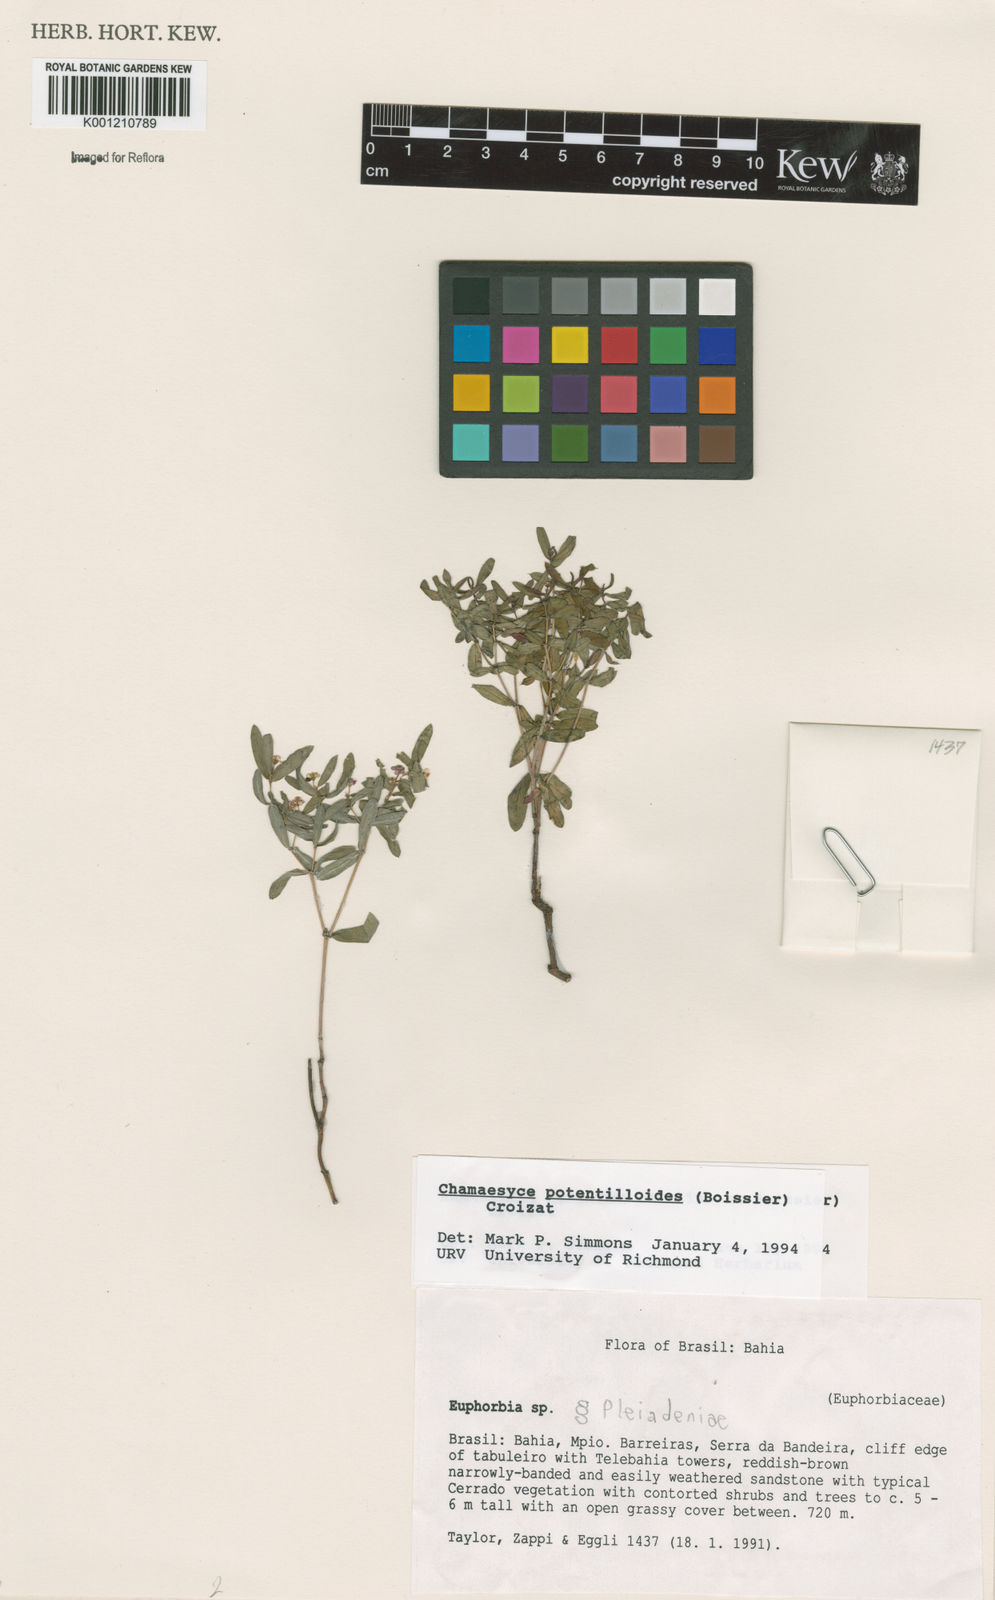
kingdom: Plantae
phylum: Tracheophyta
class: Magnoliopsida
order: Malpighiales
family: Euphorbiaceae
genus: Euphorbia
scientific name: Euphorbia potentilloides
